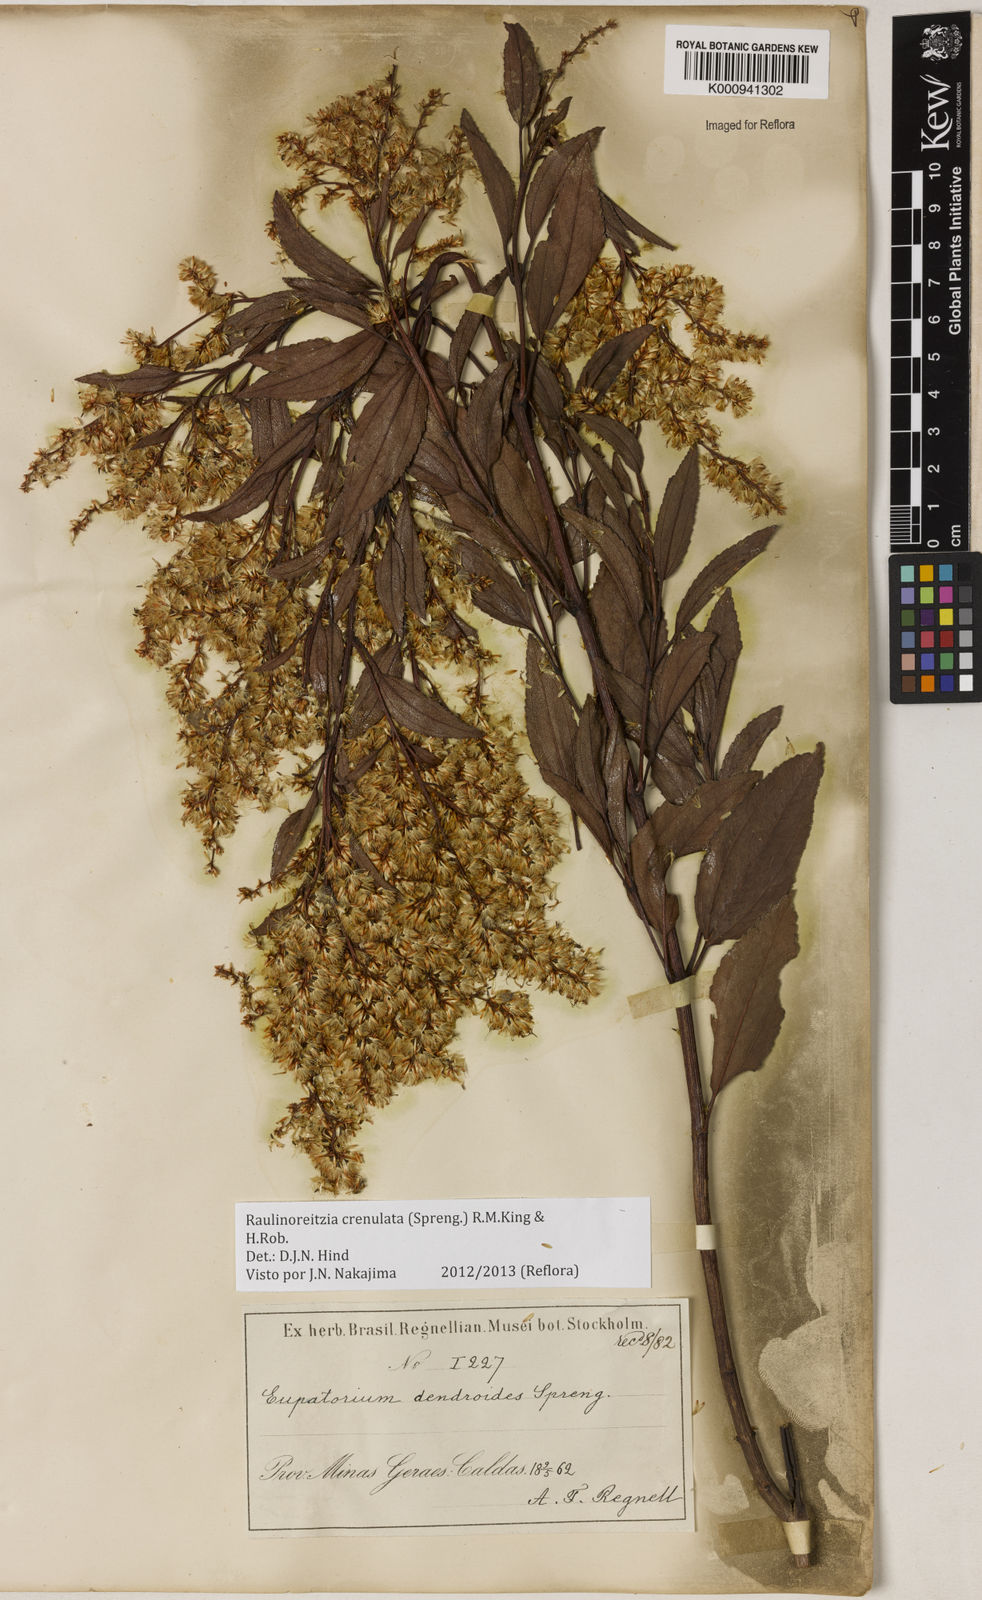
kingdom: Plantae
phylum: Tracheophyta
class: Magnoliopsida
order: Asterales
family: Asteraceae
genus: Raulinoreitzia
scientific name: Raulinoreitzia crenulata
